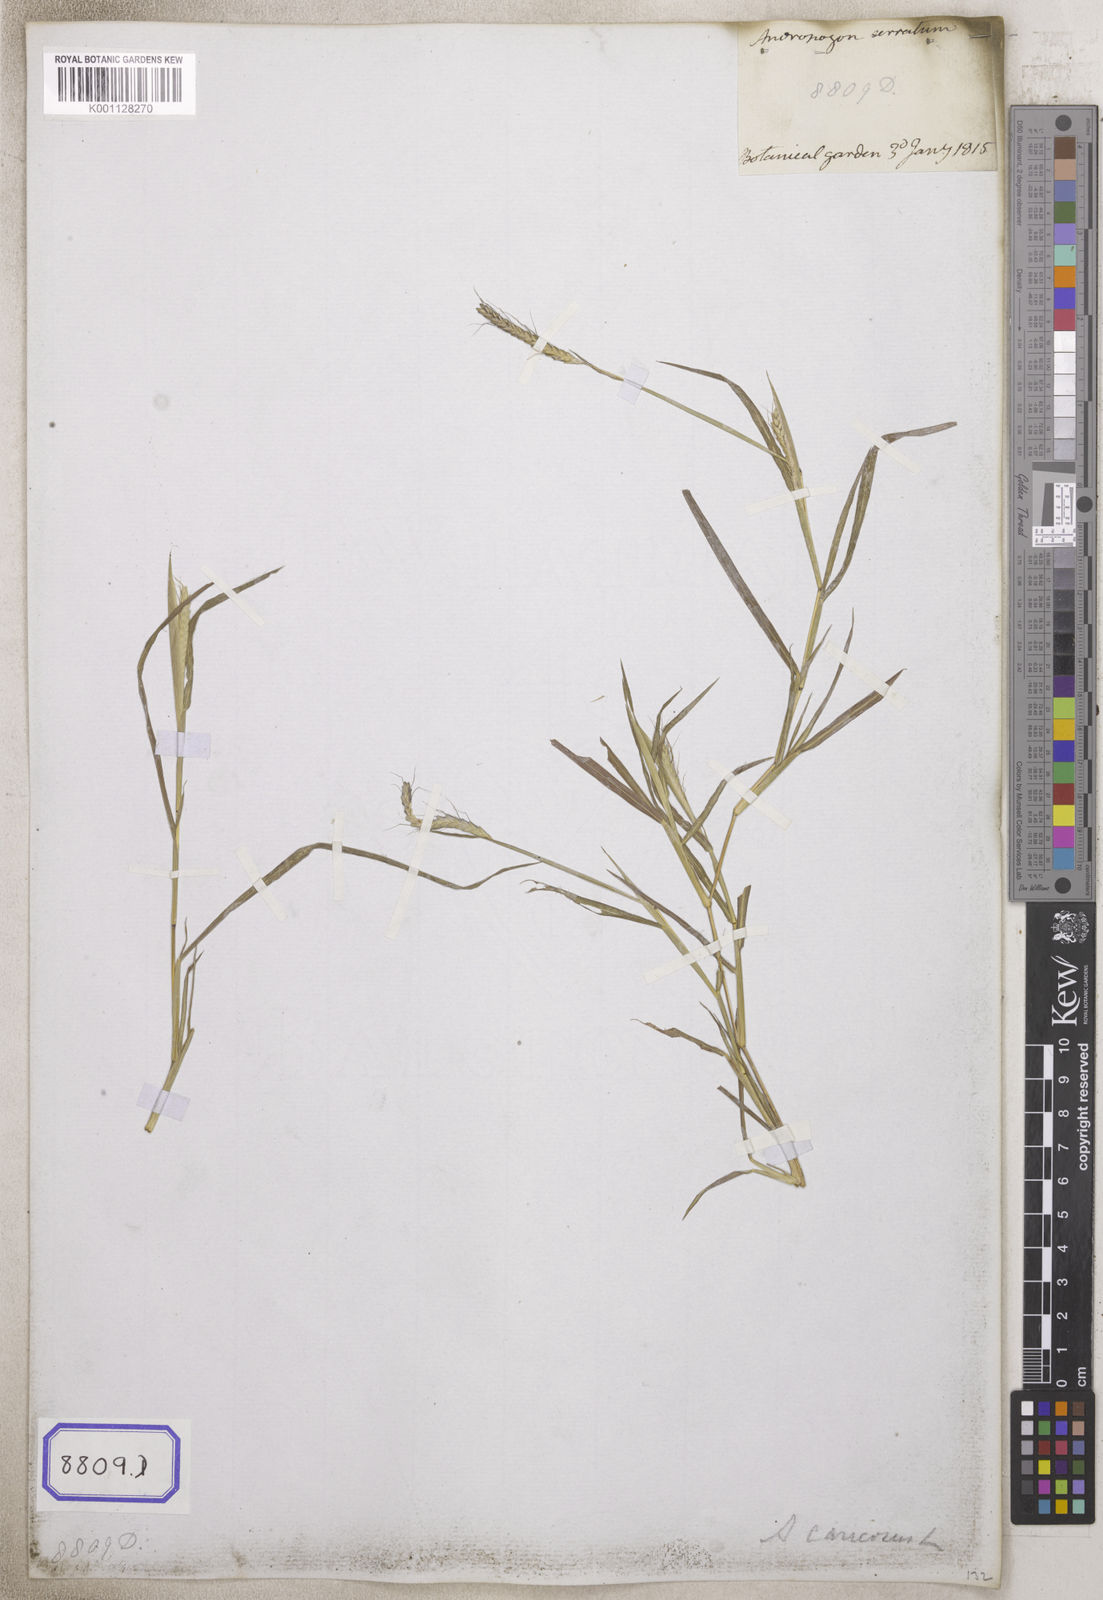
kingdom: Plantae
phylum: Tracheophyta
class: Liliopsida
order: Poales
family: Poaceae
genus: Andropogon
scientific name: Andropogon
